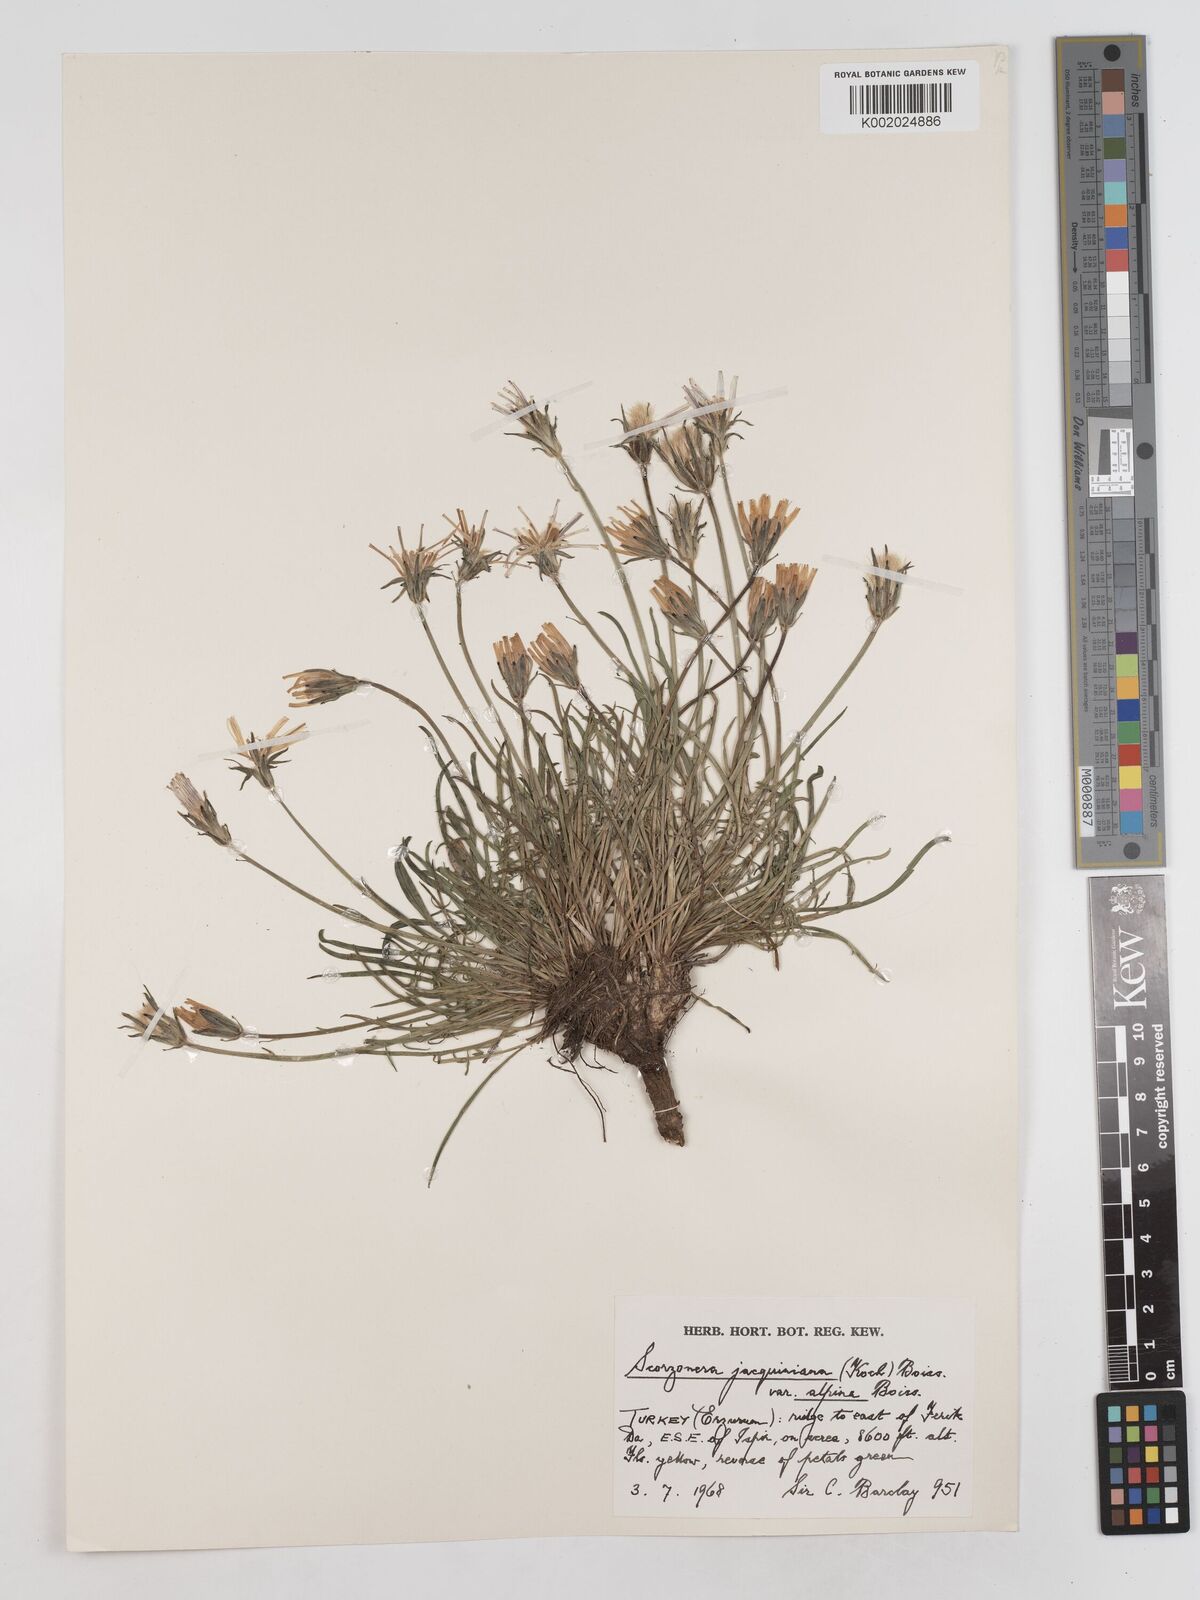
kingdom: Plantae
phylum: Tracheophyta
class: Magnoliopsida
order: Asterales
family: Asteraceae
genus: Scorzonera
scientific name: Scorzonera cana
